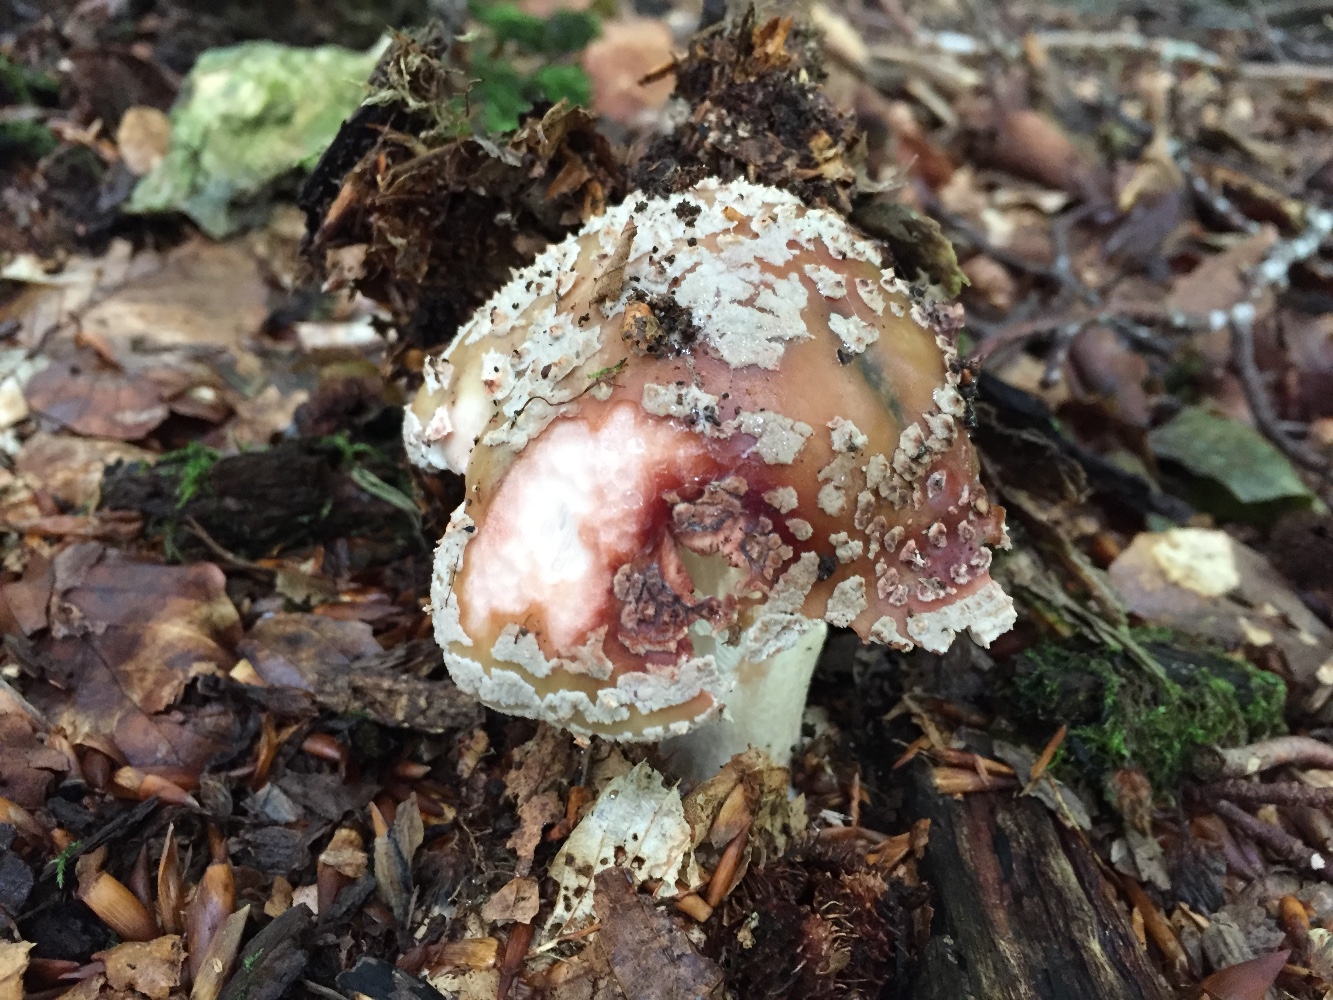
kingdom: Fungi
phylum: Basidiomycota
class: Agaricomycetes
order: Agaricales
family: Amanitaceae
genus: Amanita
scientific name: Amanita rubescens
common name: rødmende fluesvamp
